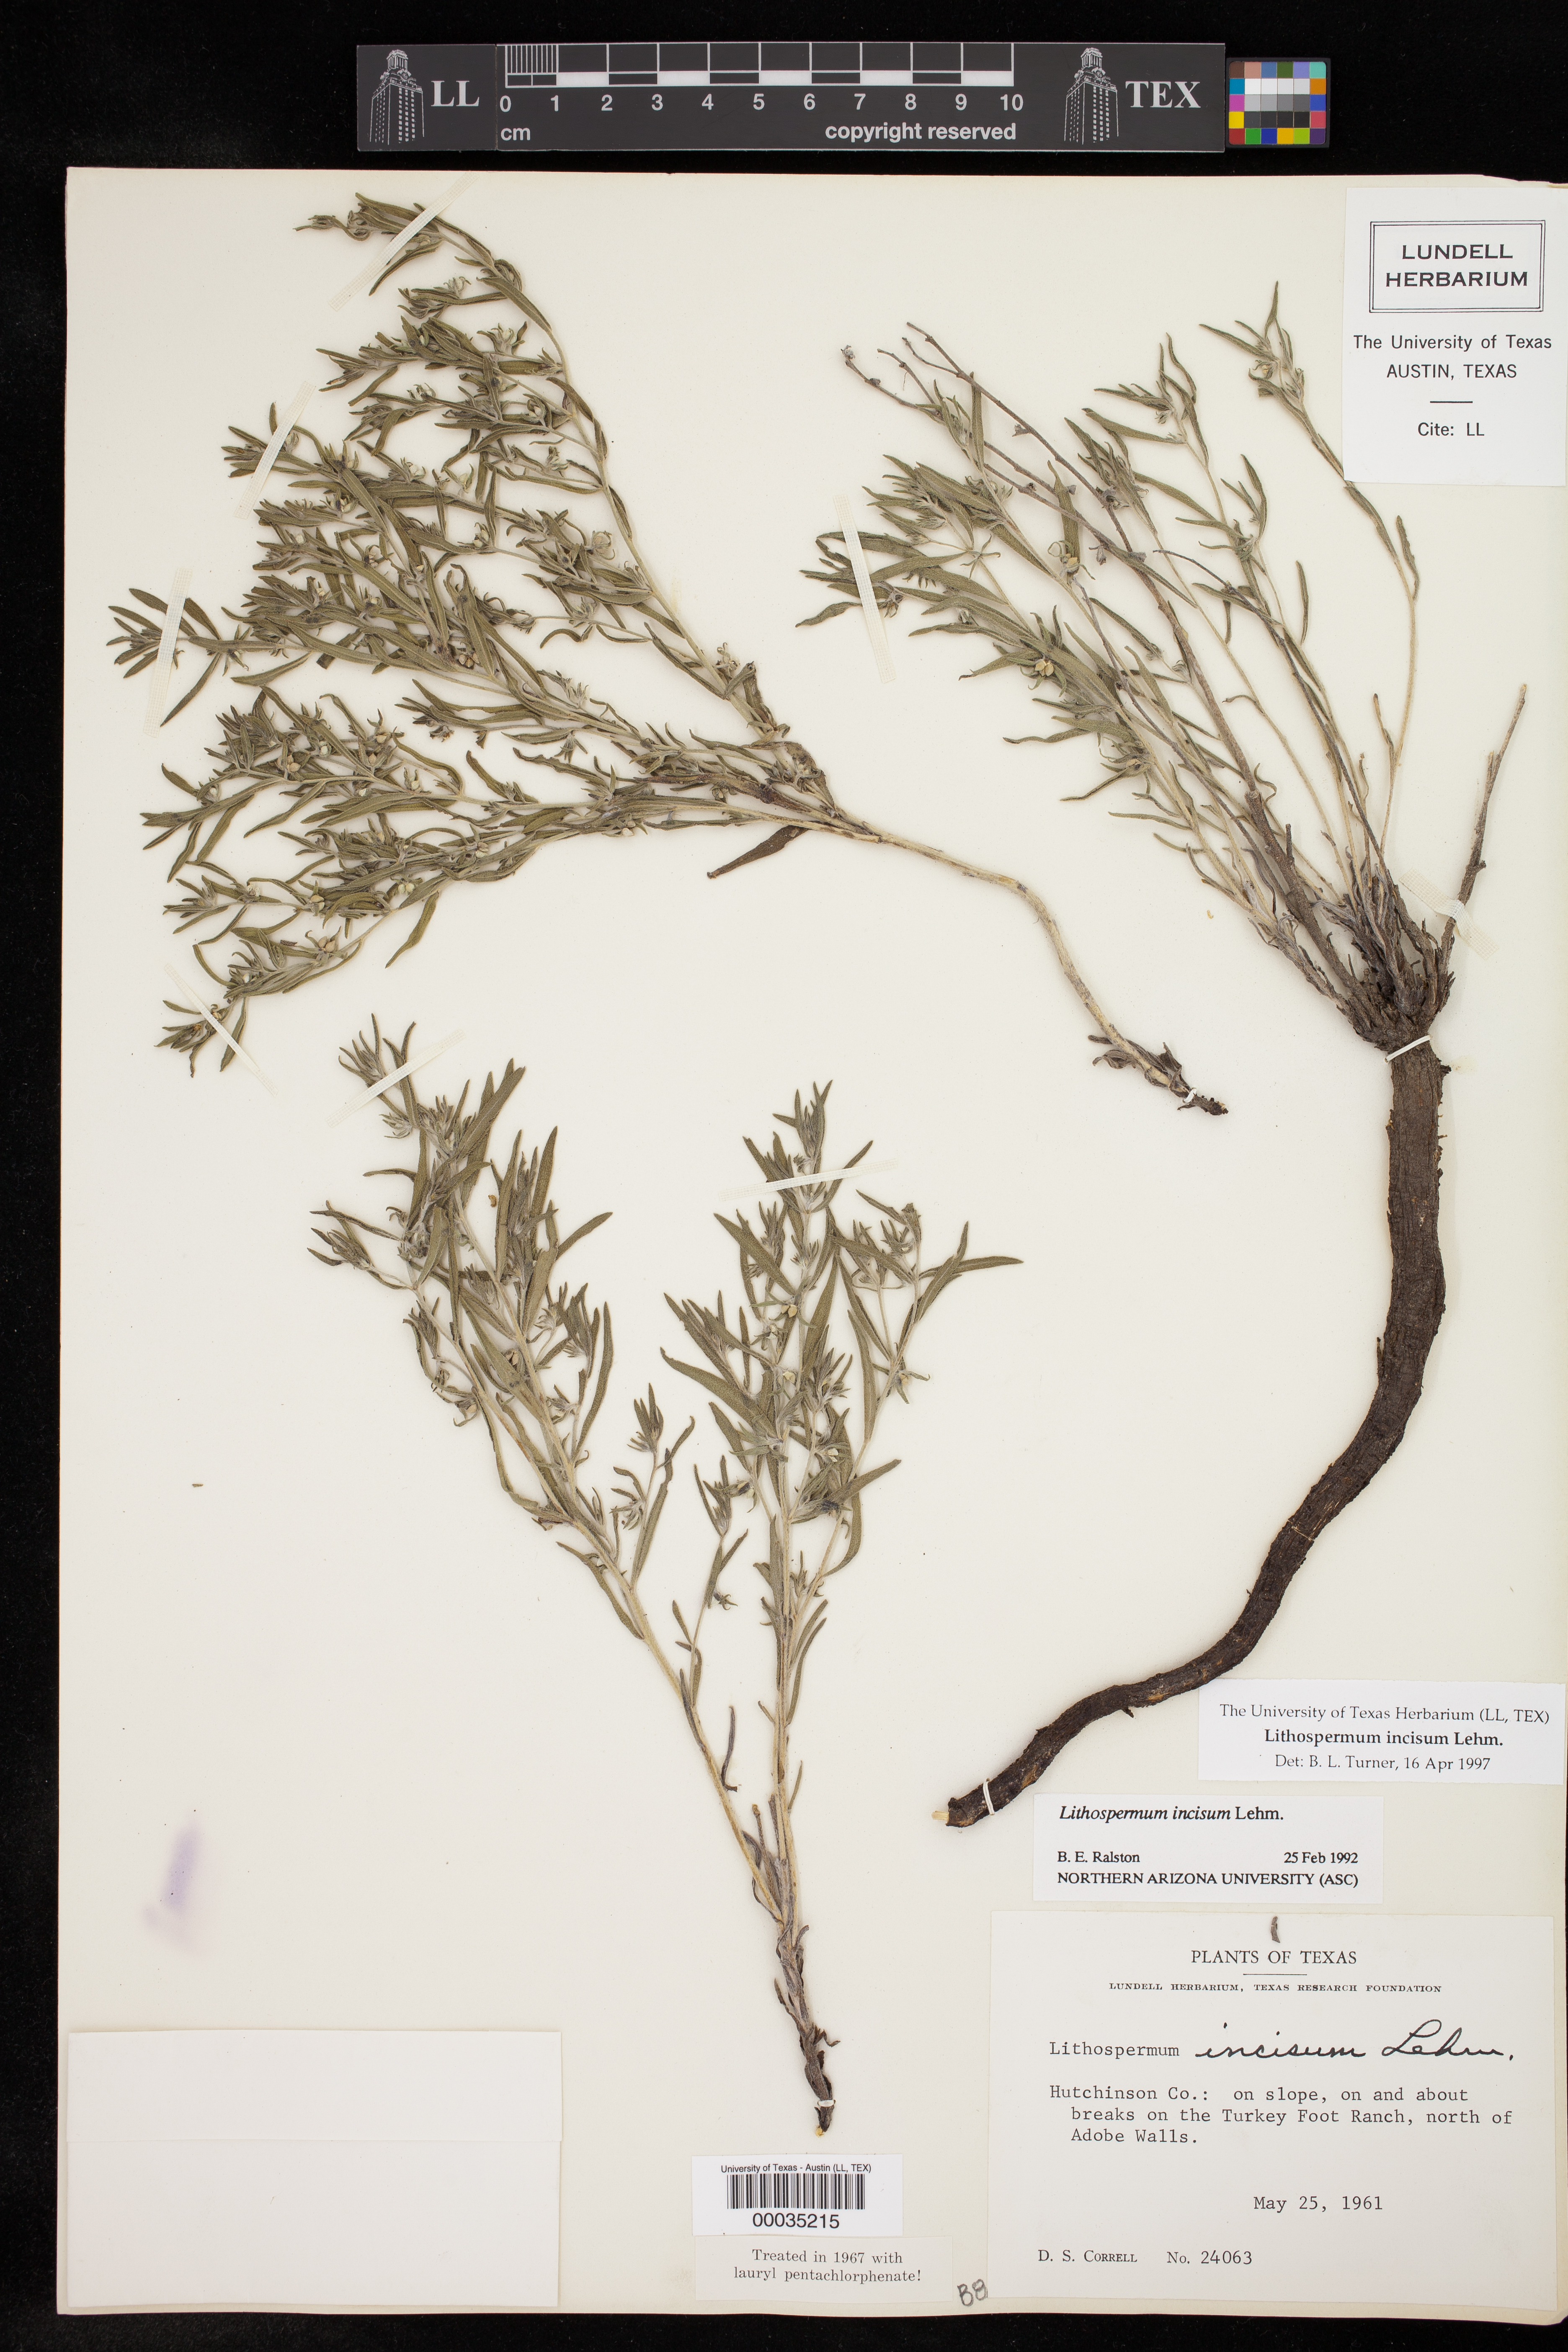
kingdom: Plantae
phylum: Tracheophyta
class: Magnoliopsida
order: Boraginales
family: Boraginaceae
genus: Lithospermum
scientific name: Lithospermum incisum
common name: Fringed gromwell
